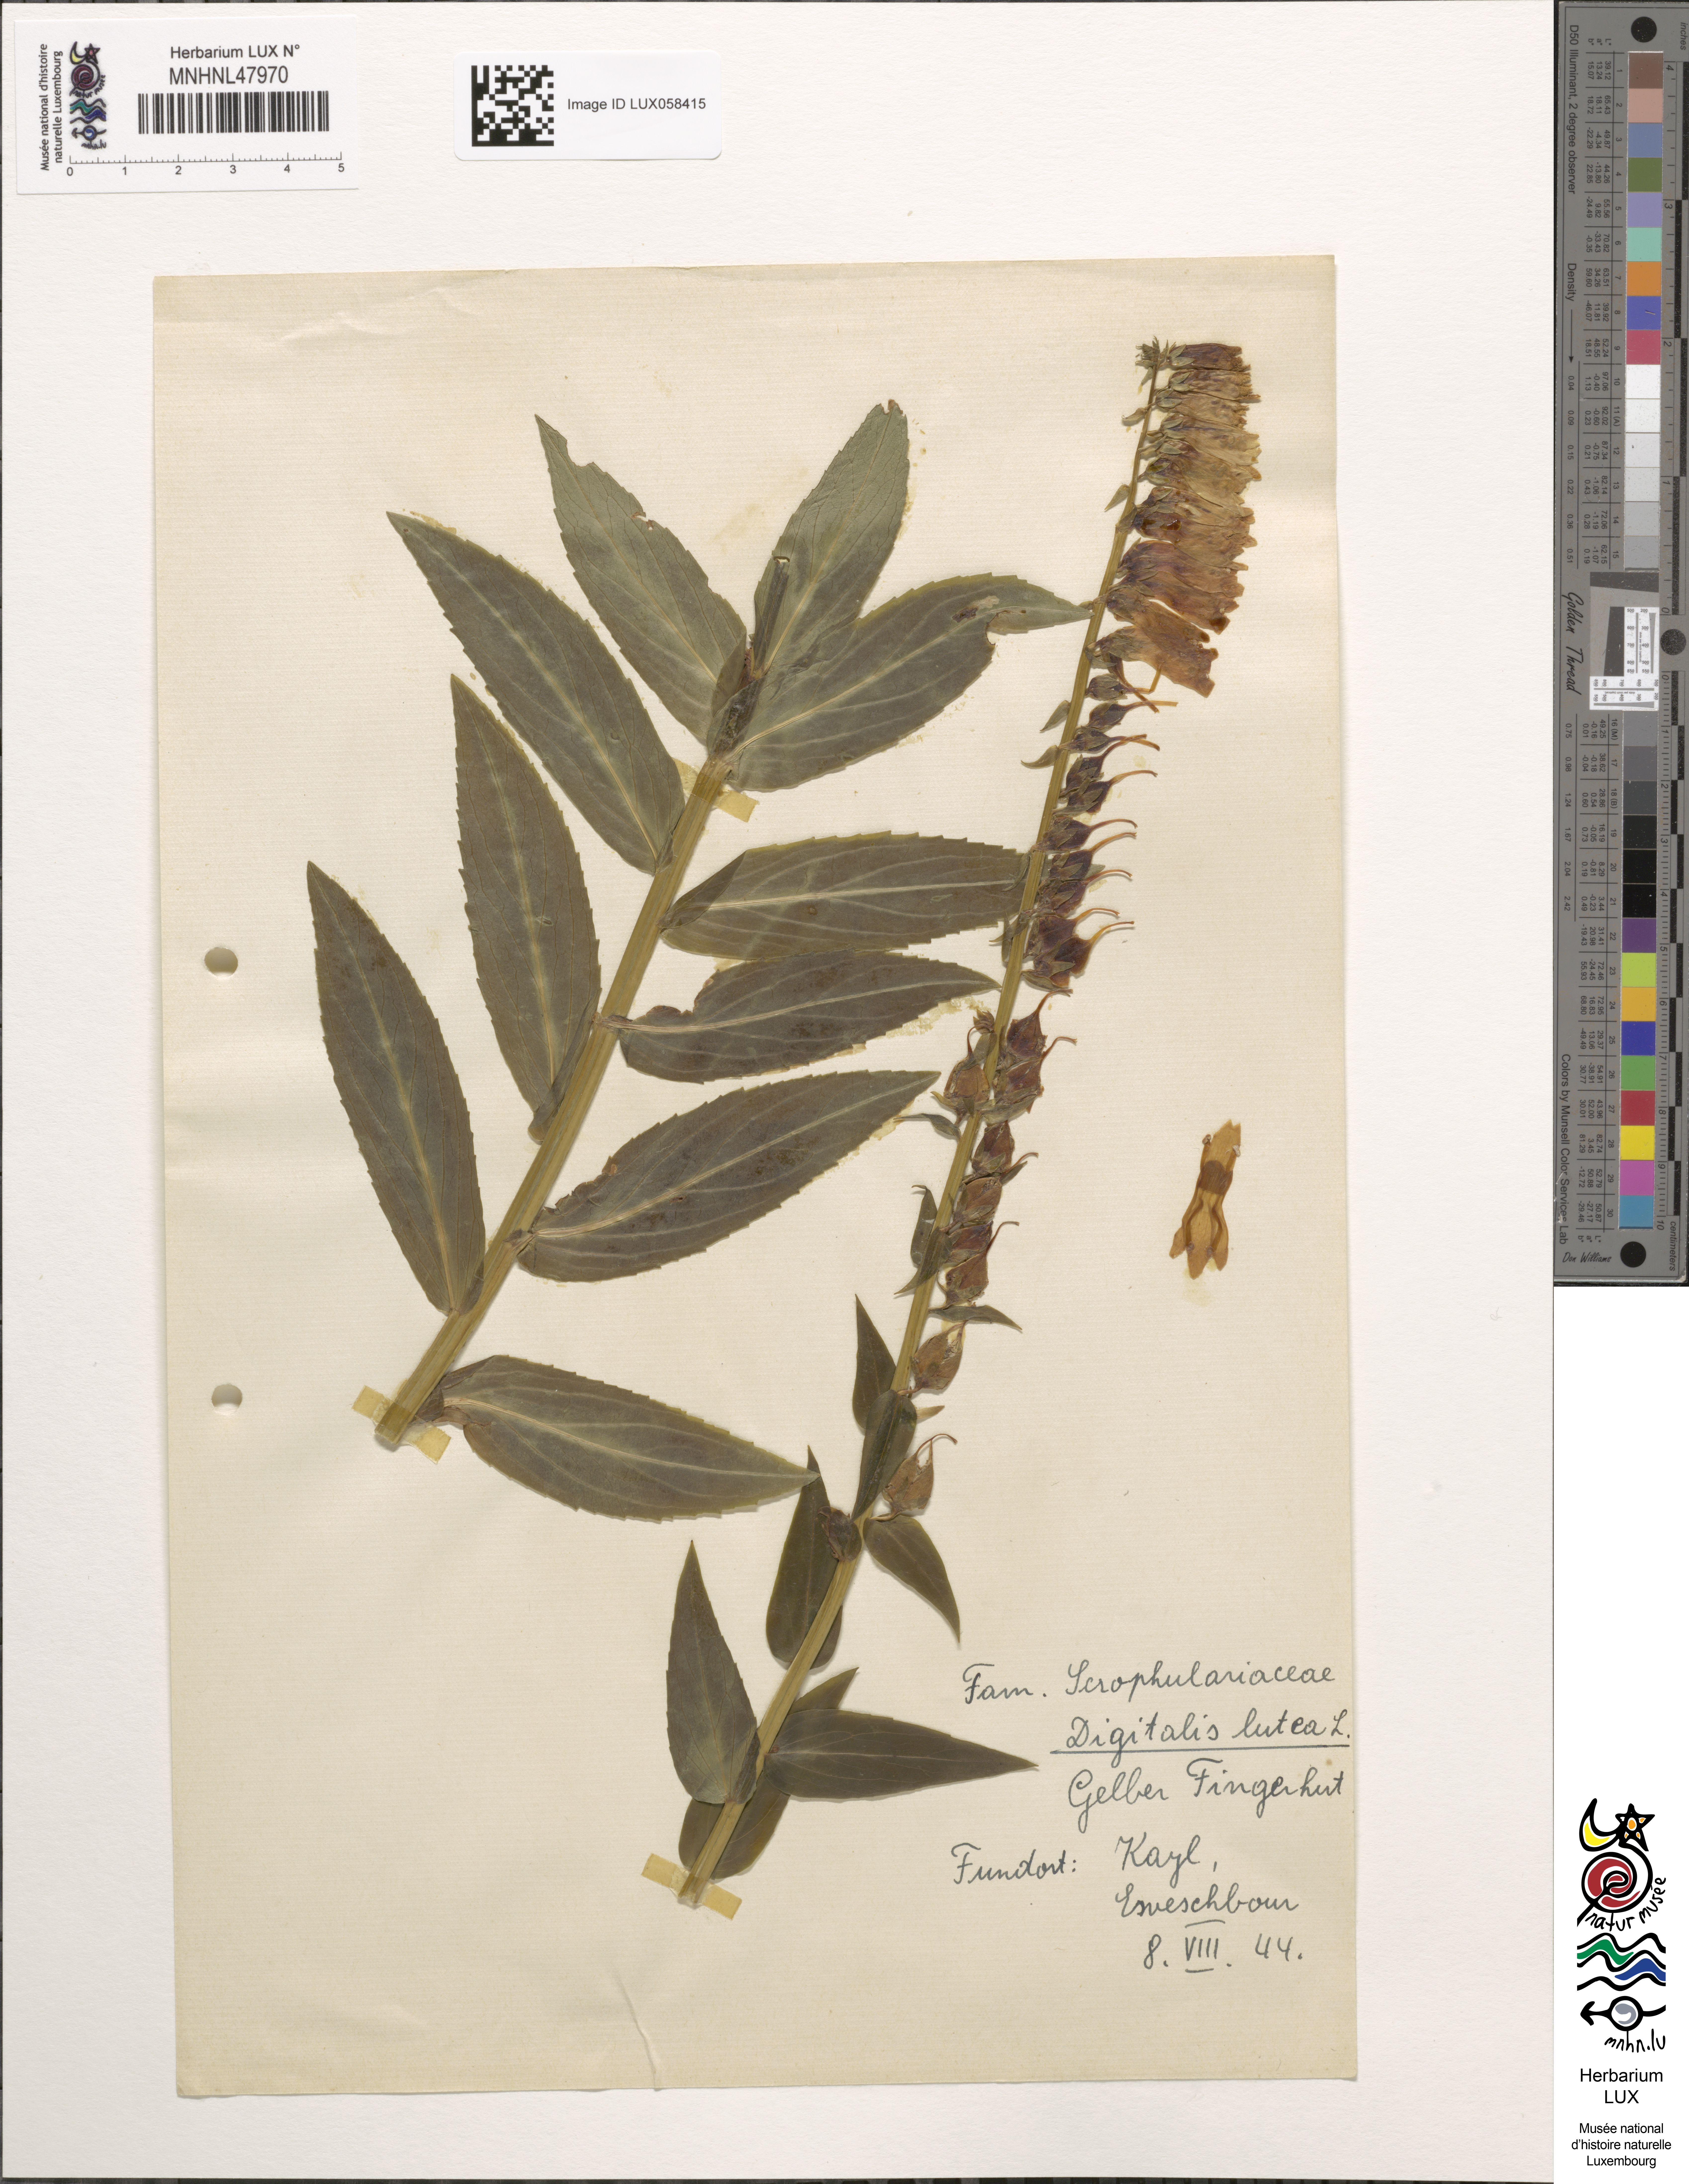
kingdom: Plantae
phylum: Tracheophyta
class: Magnoliopsida
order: Lamiales
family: Plantaginaceae
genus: Digitalis
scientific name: Digitalis lutea
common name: Straw foxglove
